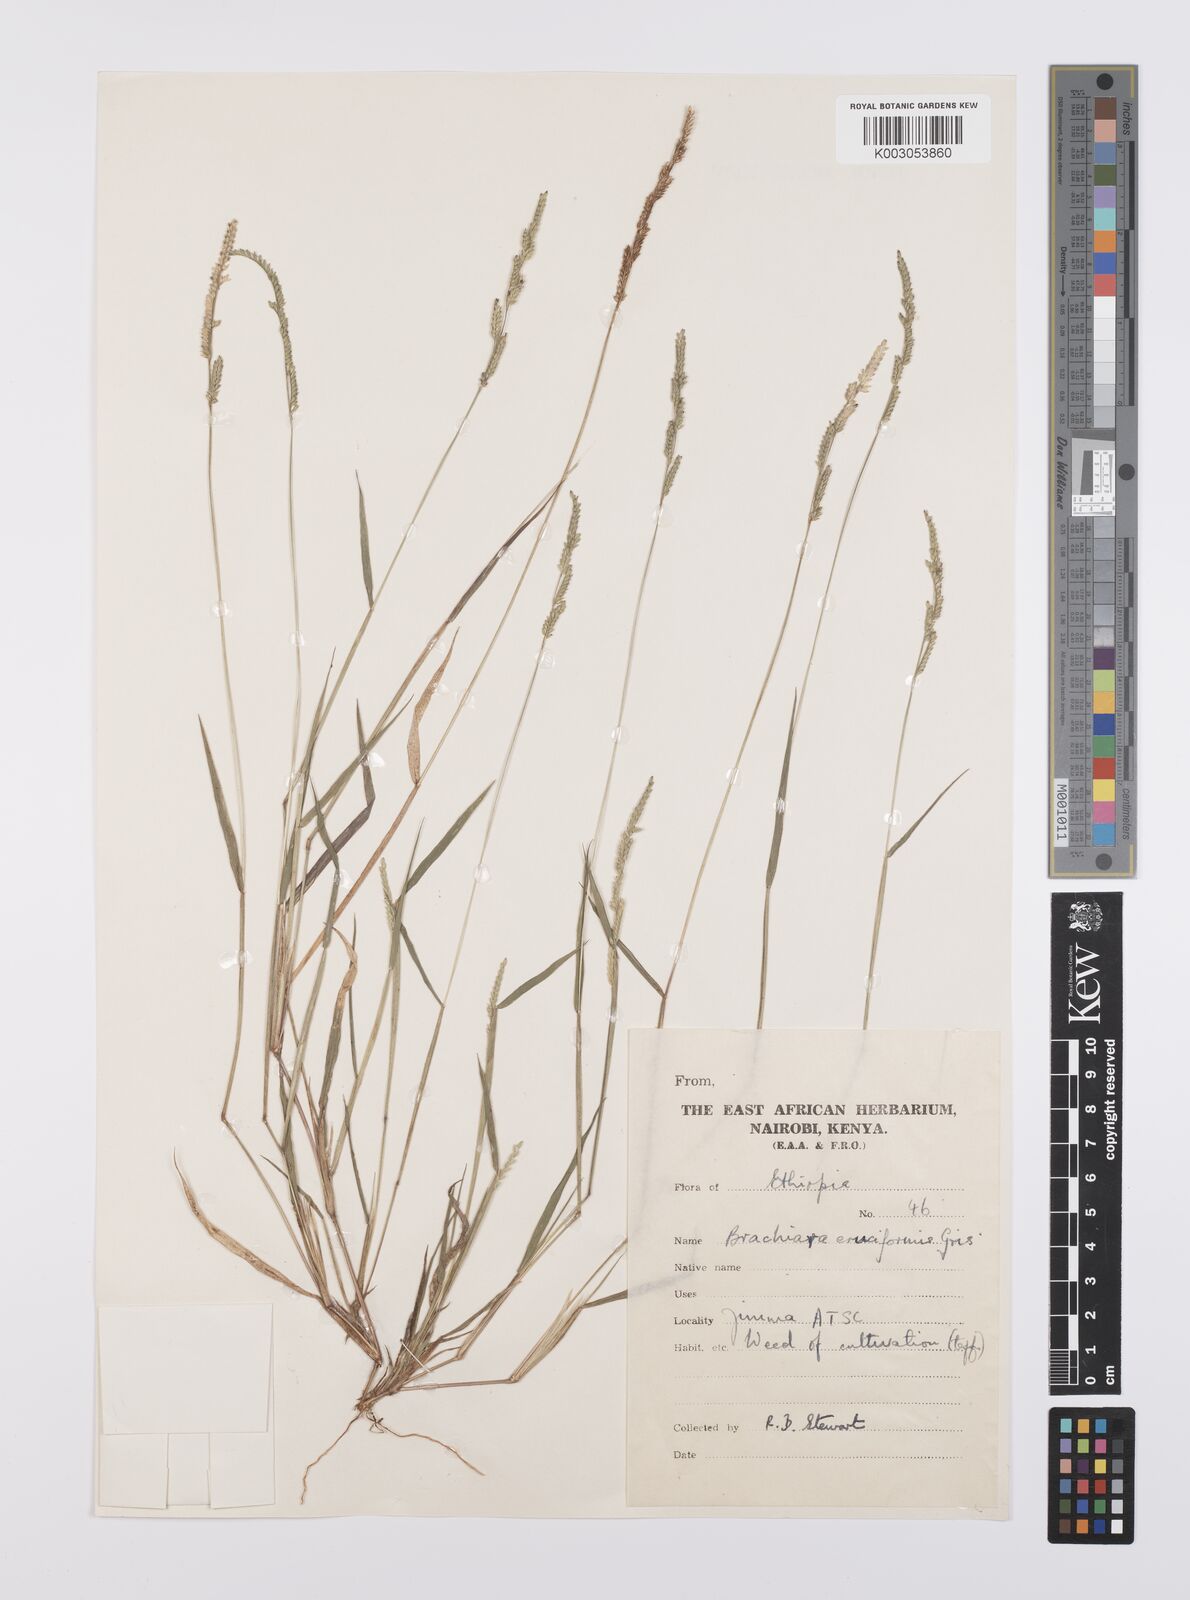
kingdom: Plantae
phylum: Tracheophyta
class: Liliopsida
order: Poales
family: Poaceae
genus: Moorochloa
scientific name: Moorochloa eruciformis
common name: Sweet signalgrass
